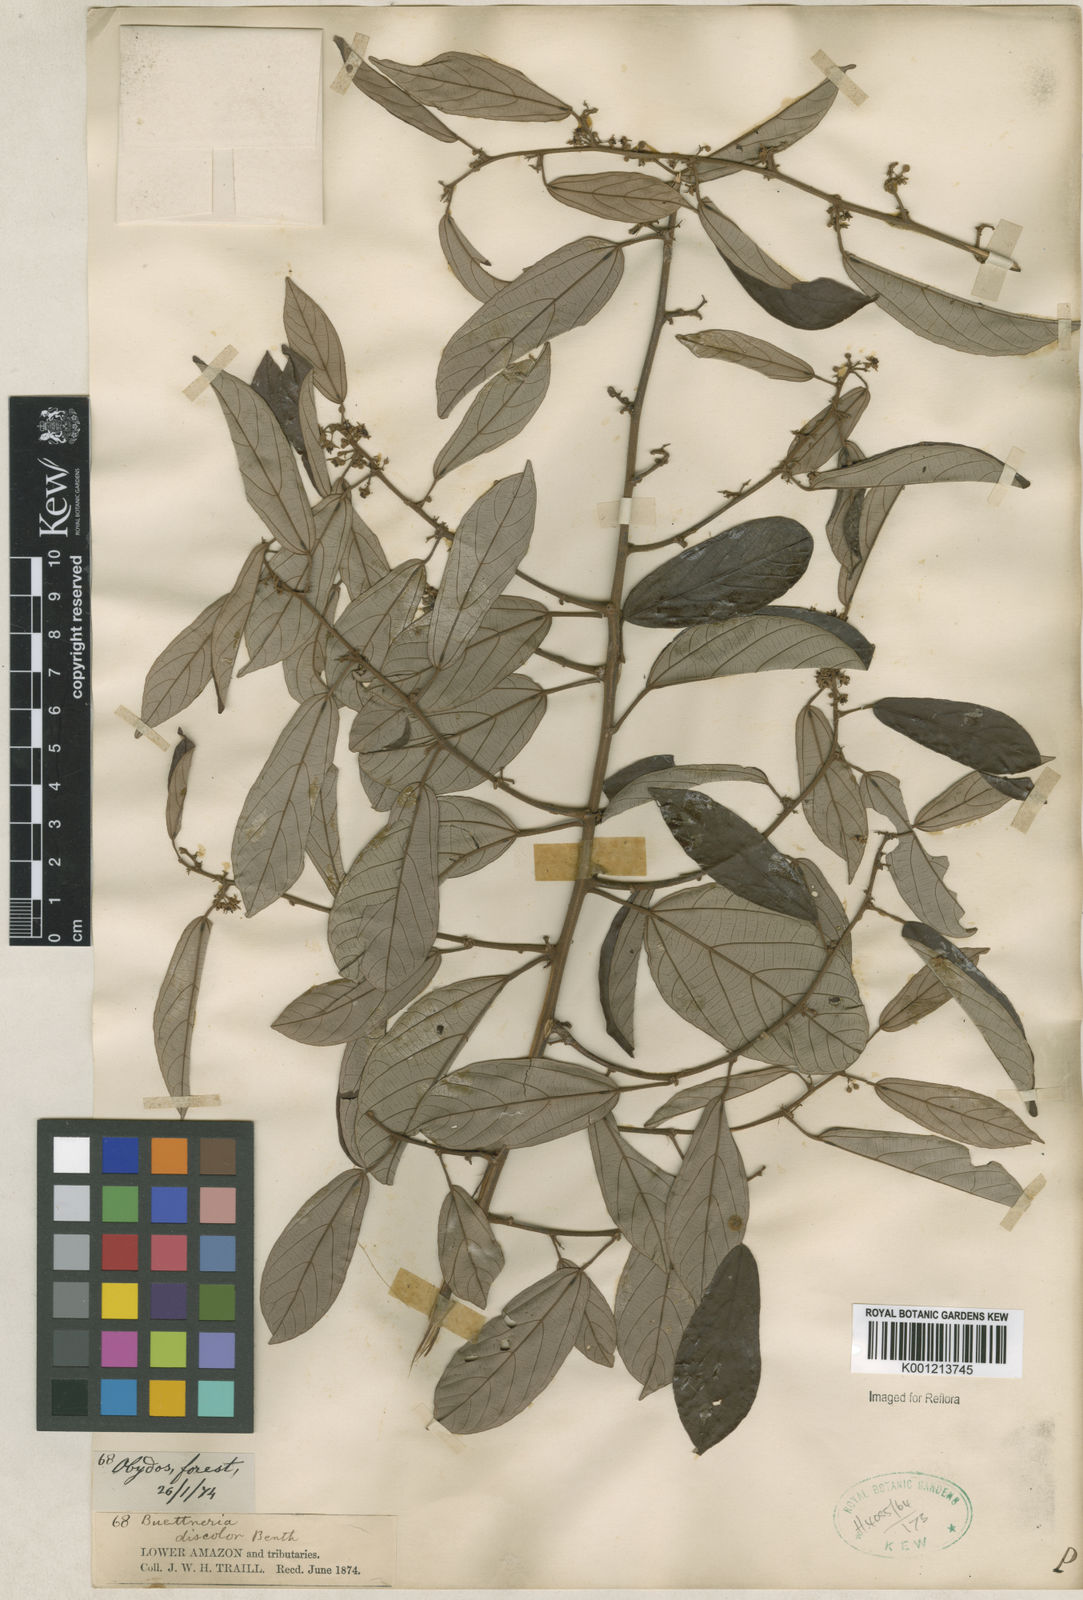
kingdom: Plantae
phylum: Tracheophyta
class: Magnoliopsida
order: Malvales
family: Malvaceae
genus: Byttneria
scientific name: Byttneria fulva
